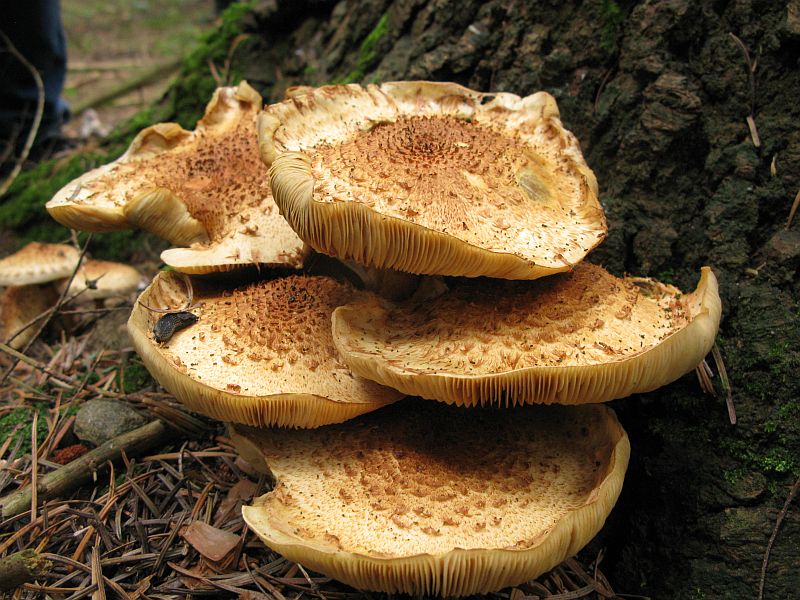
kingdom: Fungi
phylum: Basidiomycota
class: Agaricomycetes
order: Agaricales
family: Strophariaceae
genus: Pholiota
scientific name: Pholiota squarrosa
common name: krumskællet skælhat
